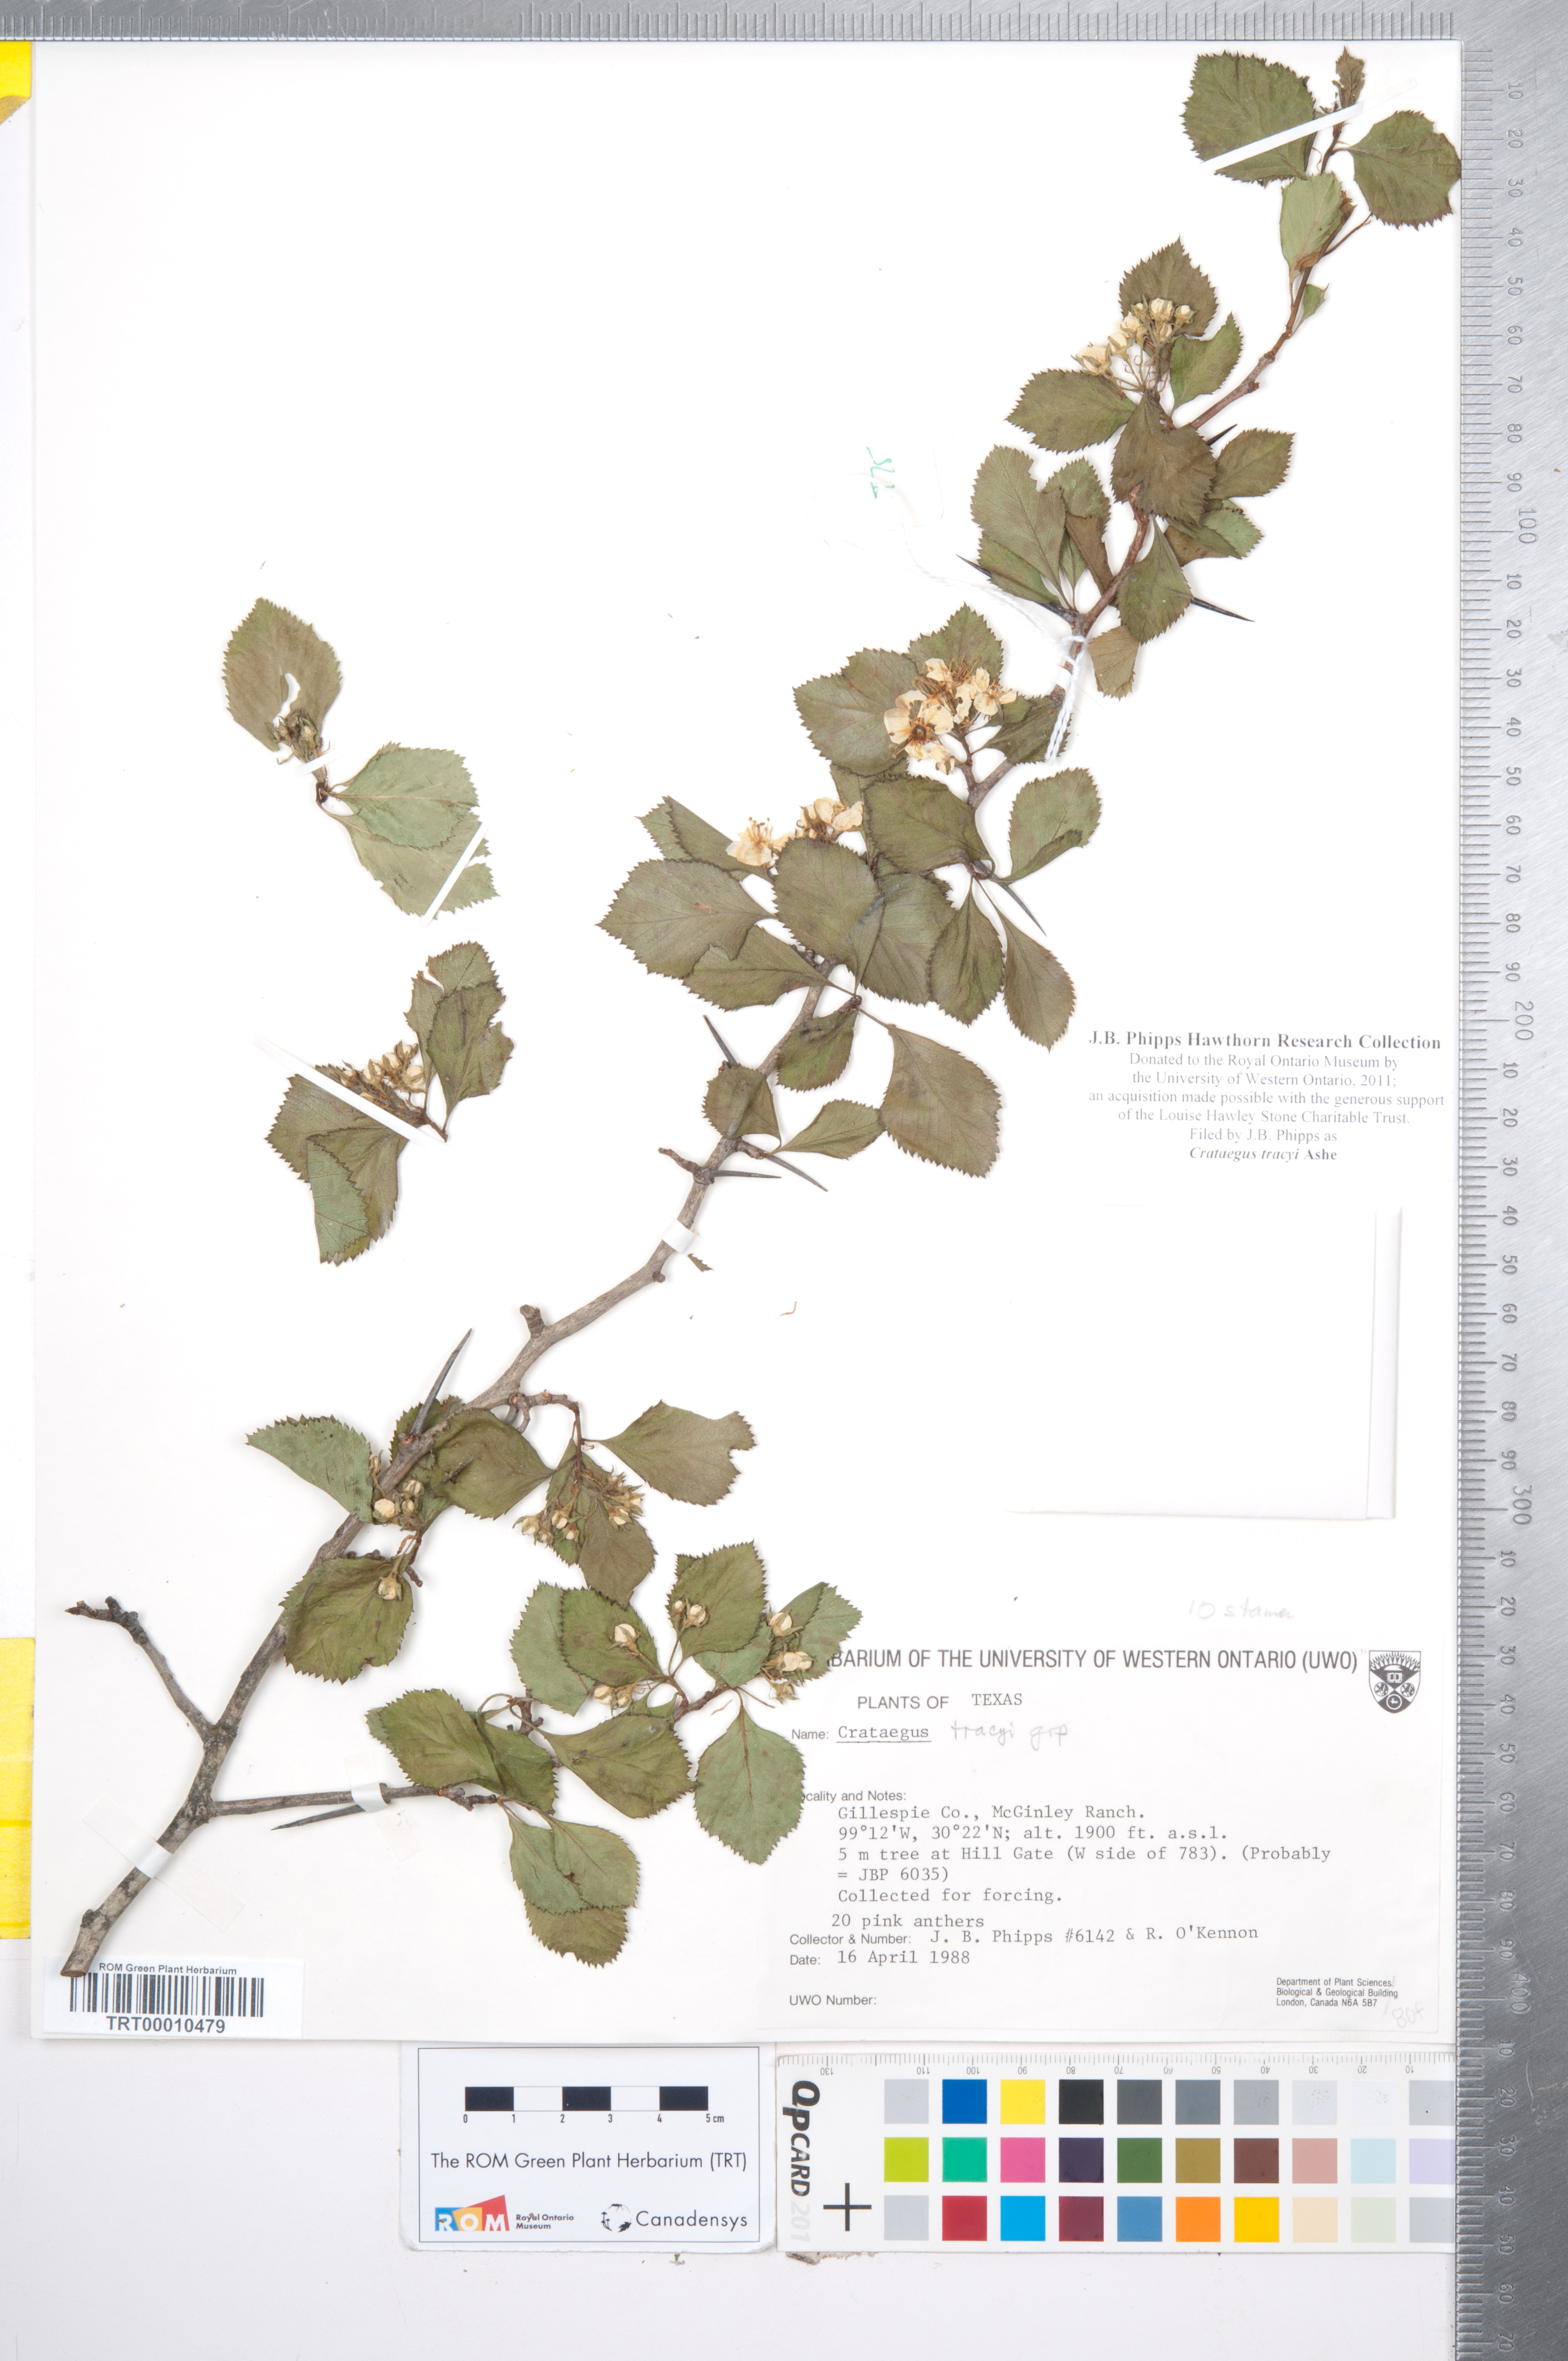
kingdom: Plantae
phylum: Tracheophyta
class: Magnoliopsida
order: Rosales
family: Rosaceae
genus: Crataegus
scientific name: Crataegus tracyi
